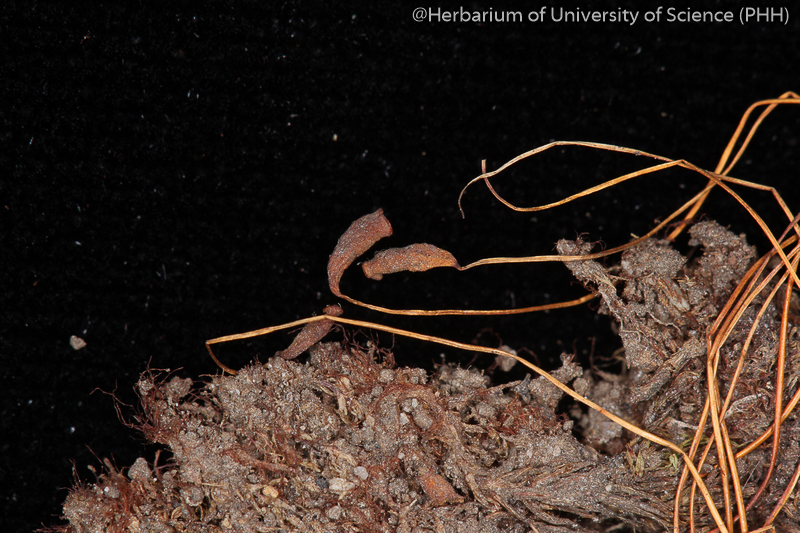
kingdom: Plantae
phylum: Bryophyta
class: Bryopsida
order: Bryales
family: Mniaceae
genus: Pohlia
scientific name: Pohlia elongata
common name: Long-fruited thread-moss
